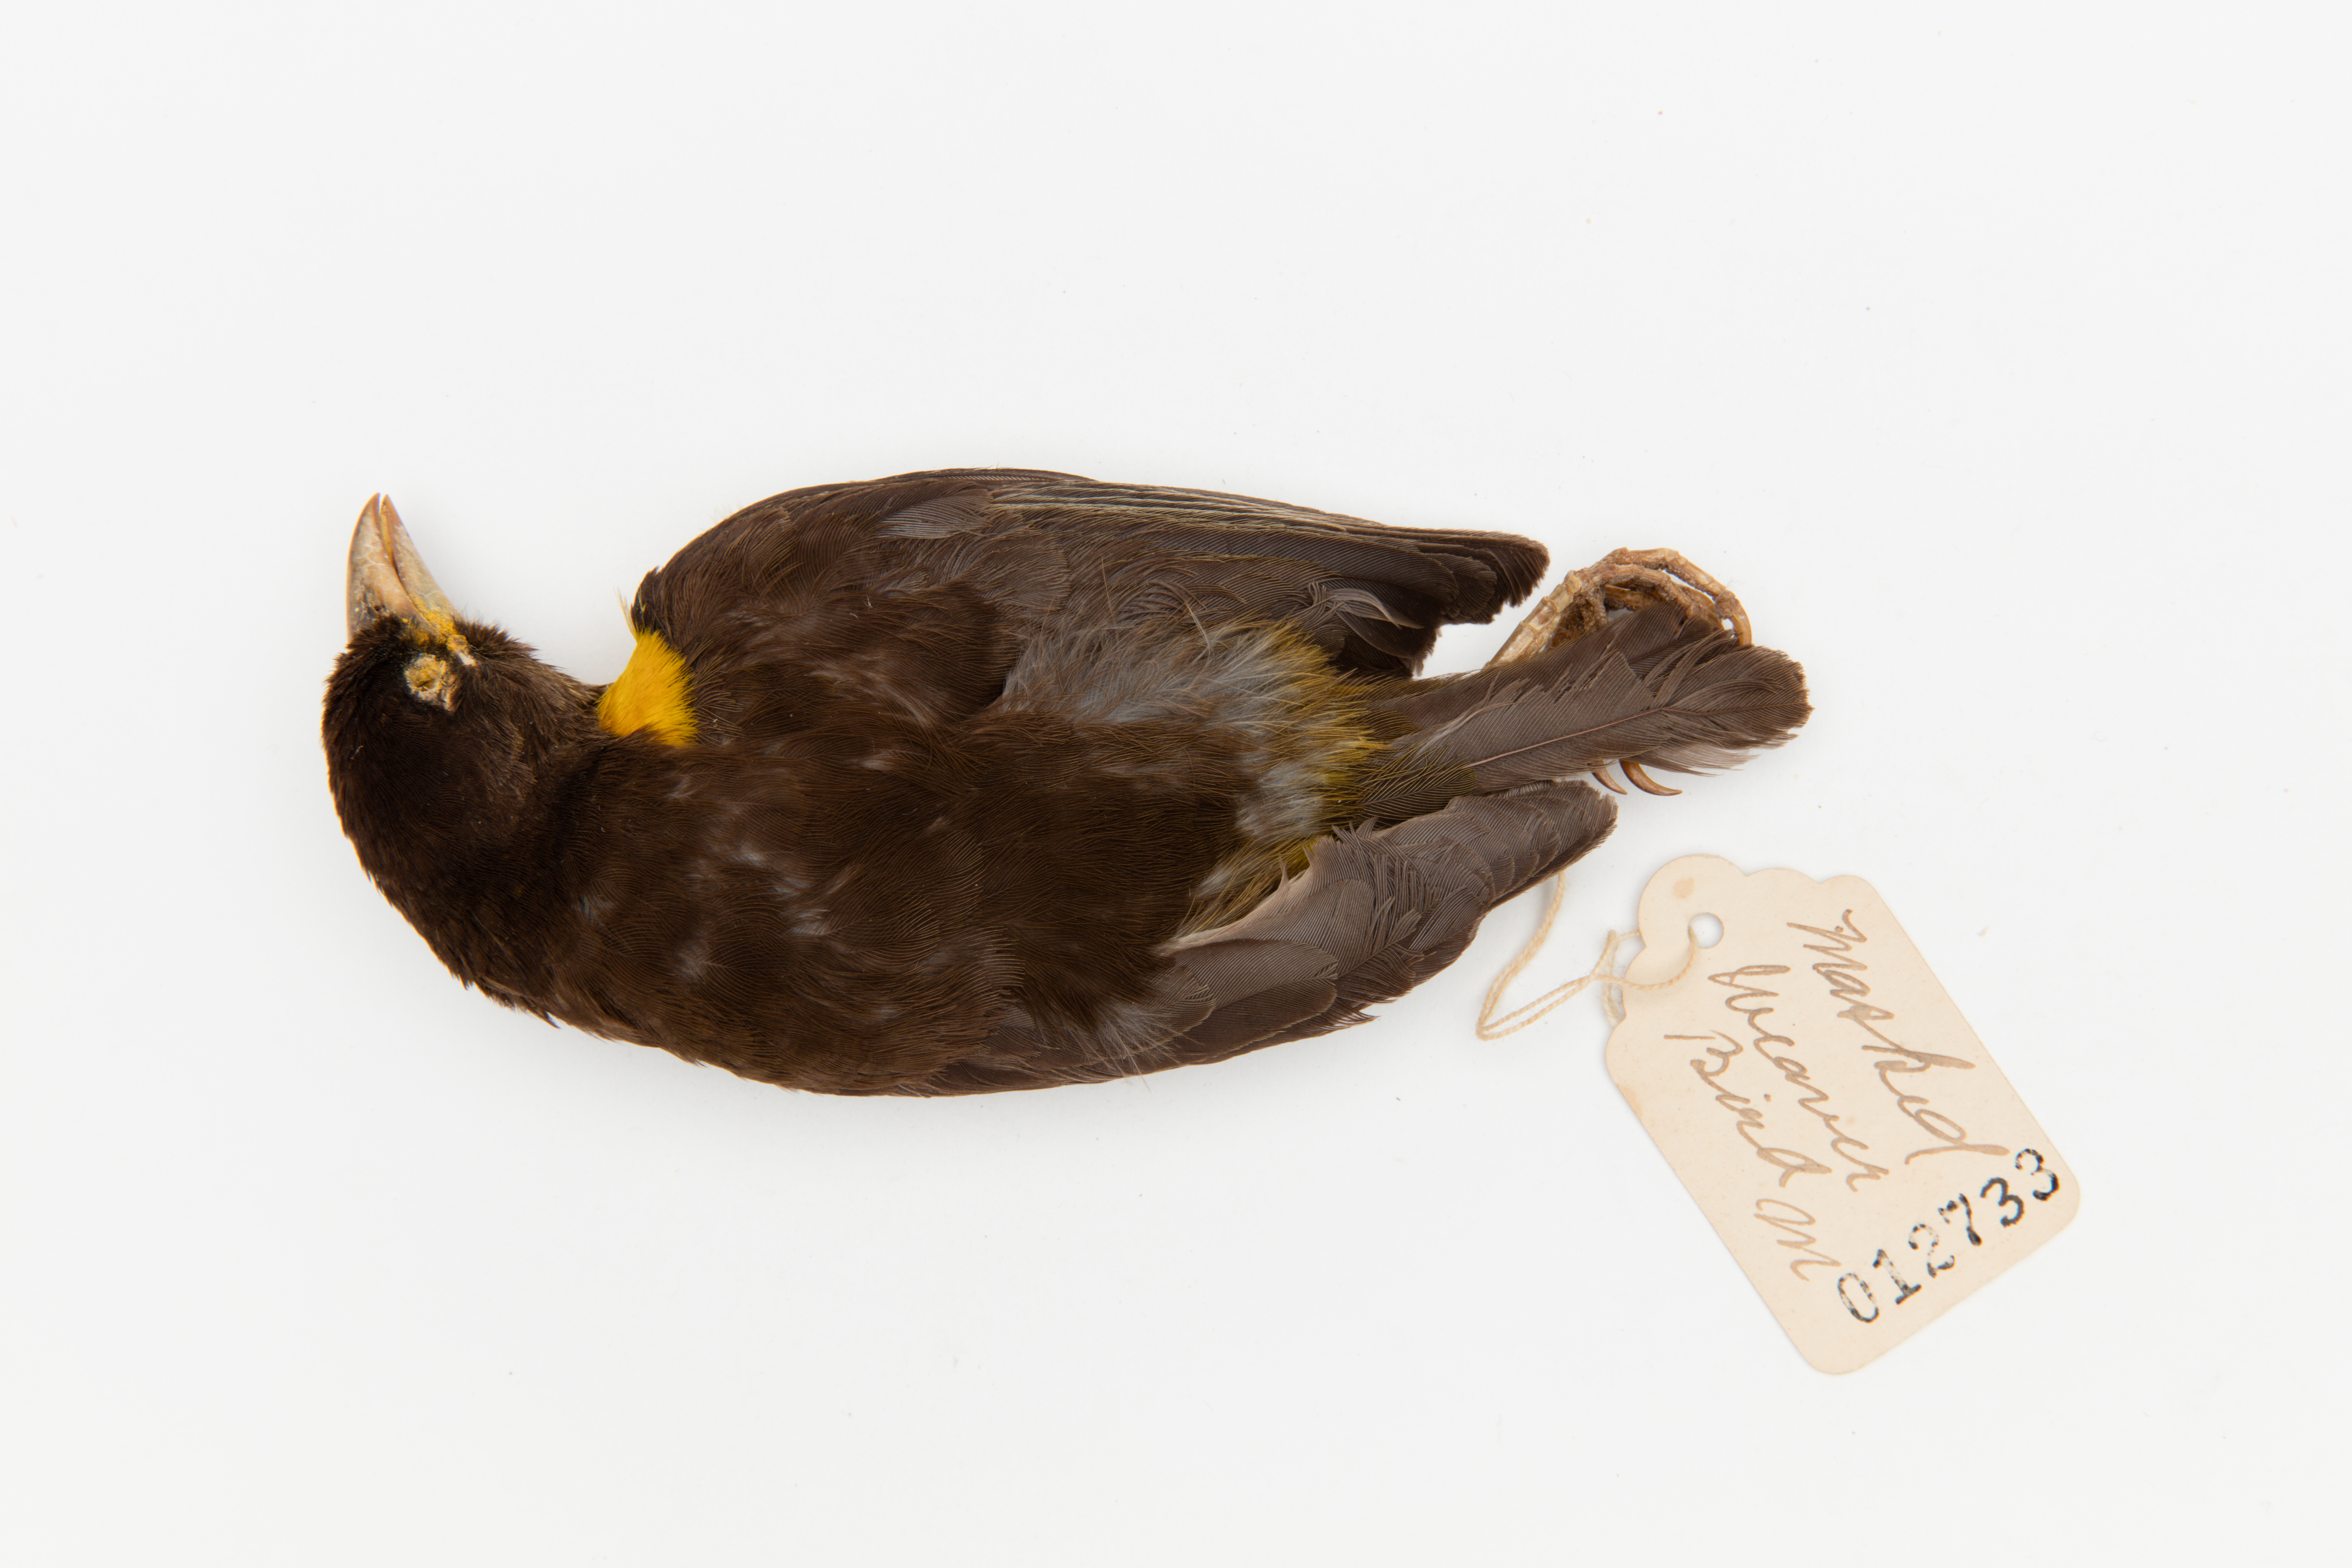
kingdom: Animalia
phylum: Chordata
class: Aves
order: Passeriformes
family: Ploceidae
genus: Ploceus
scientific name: Ploceus bicolor
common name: Dark-backed weaver
